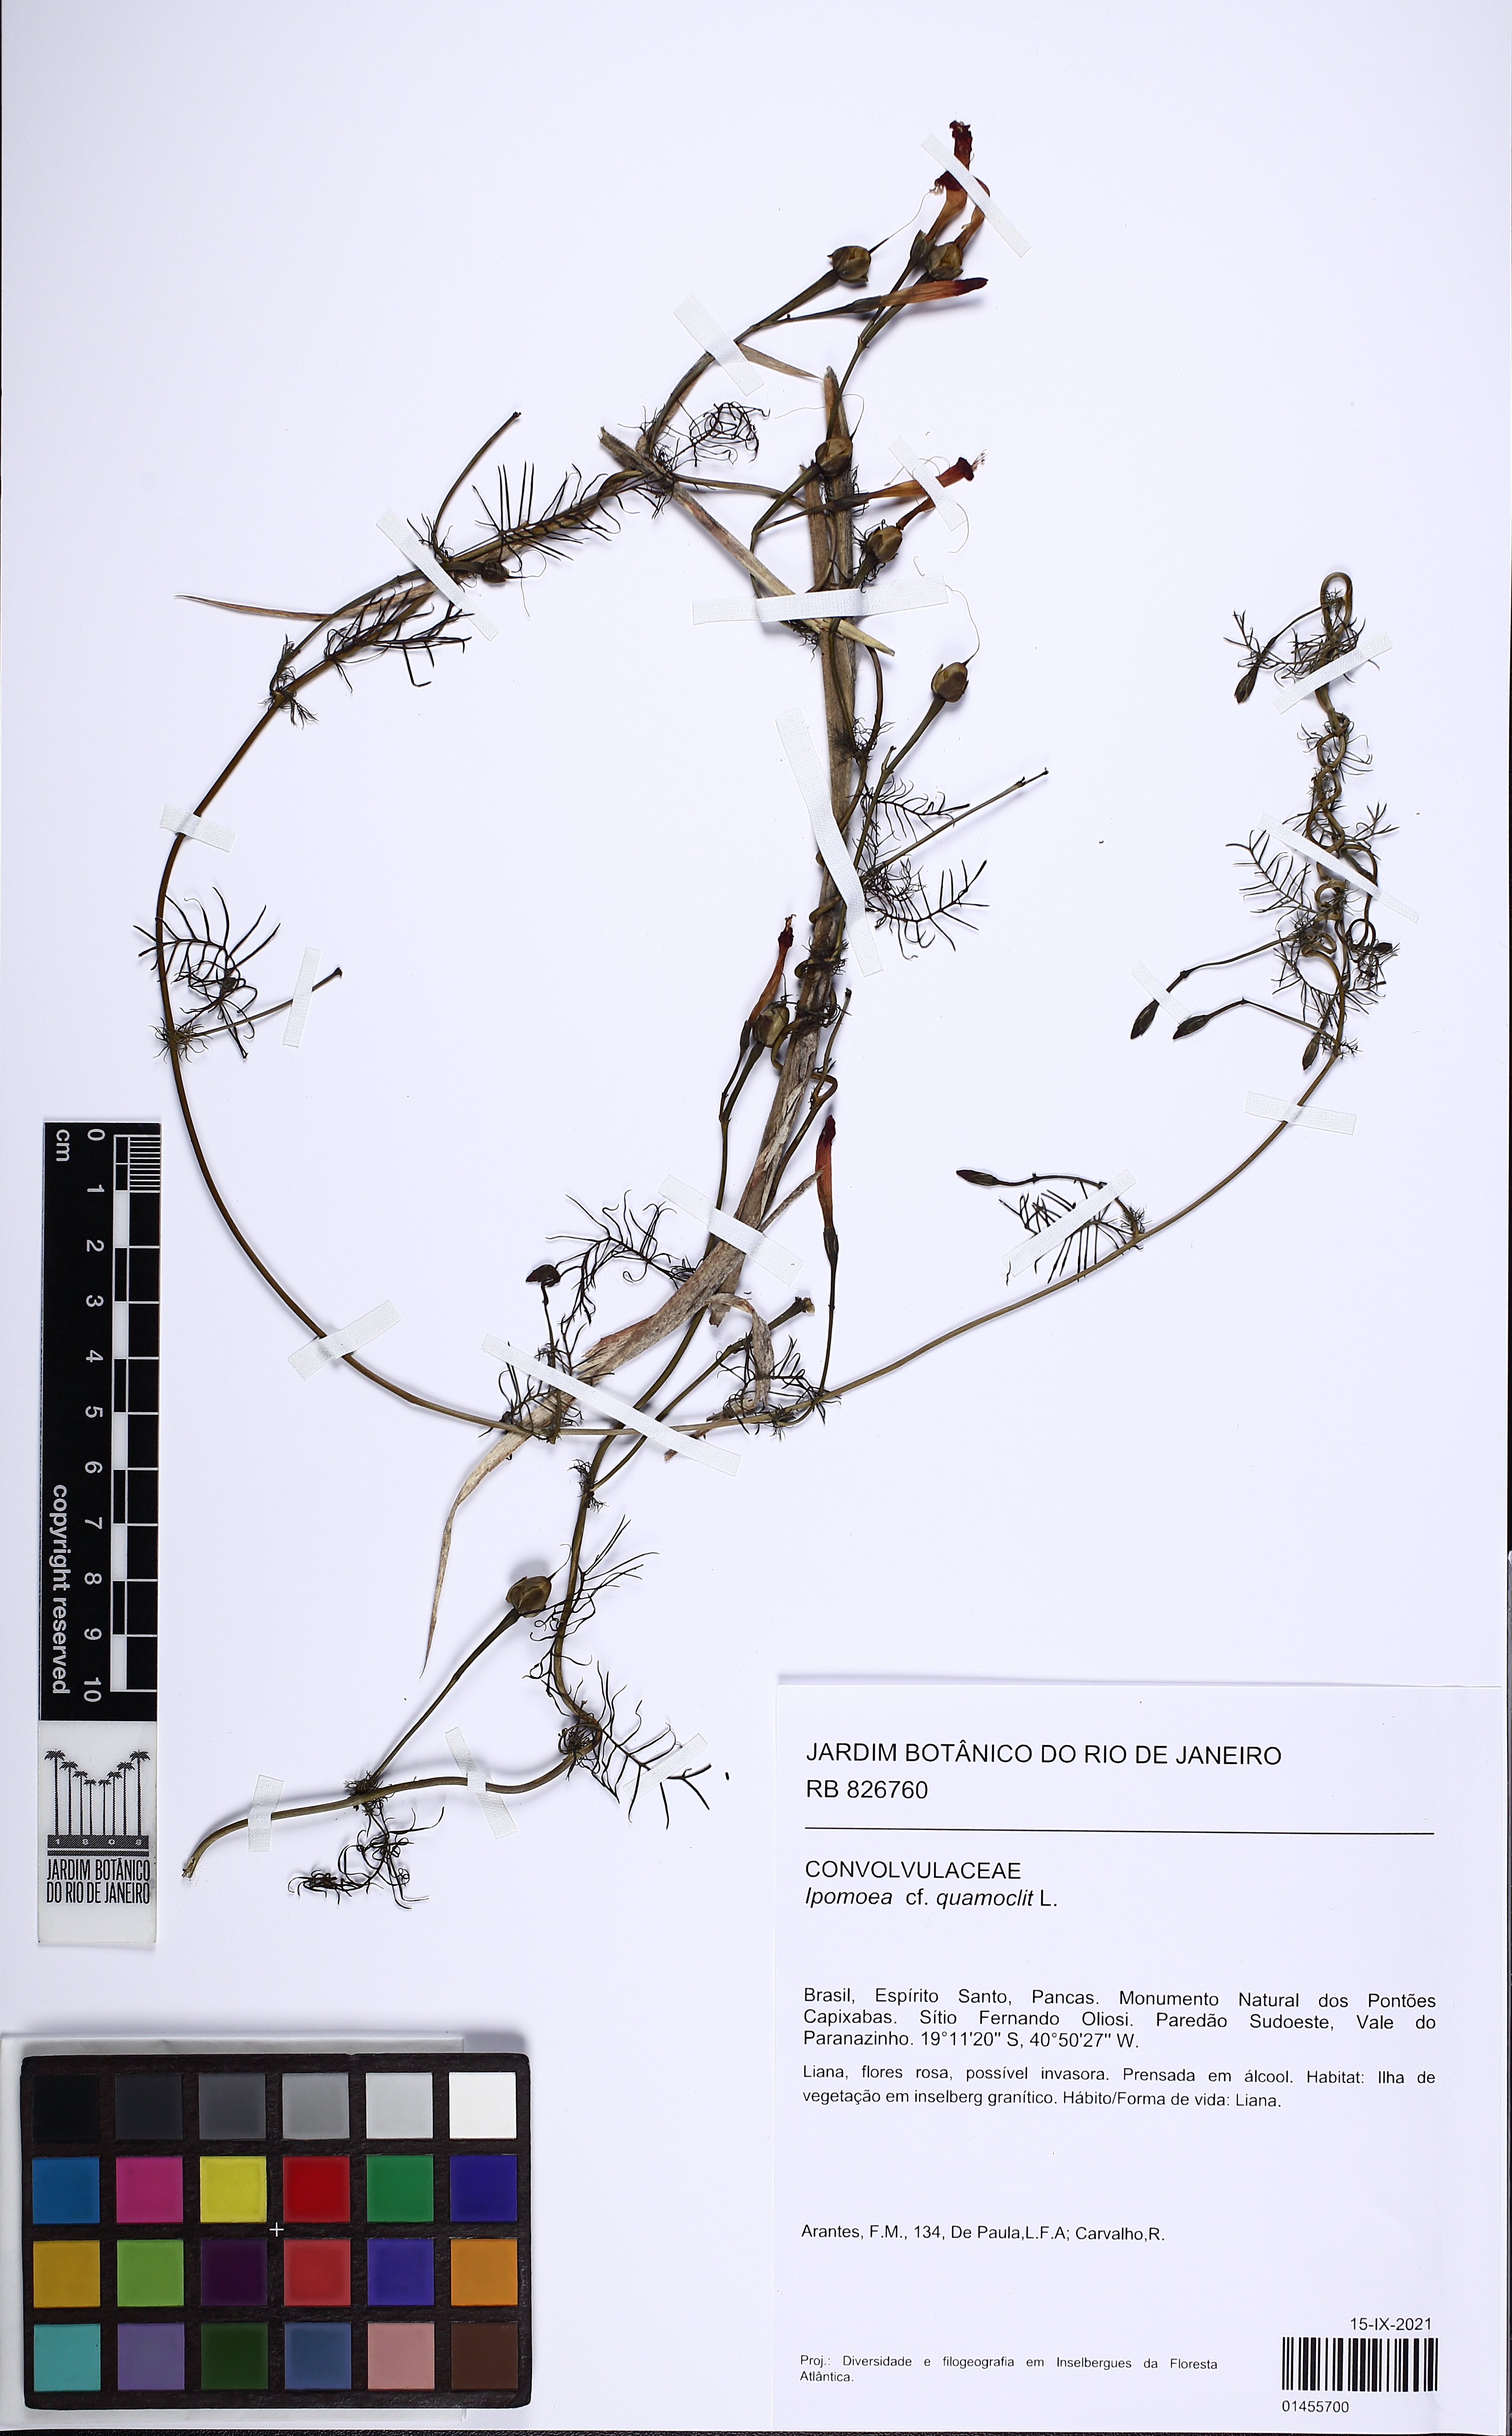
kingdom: Plantae
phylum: Tracheophyta
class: Magnoliopsida
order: Solanales
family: Convolvulaceae
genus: Ipomoea
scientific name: Ipomoea quamoclit
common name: Cypress vine
